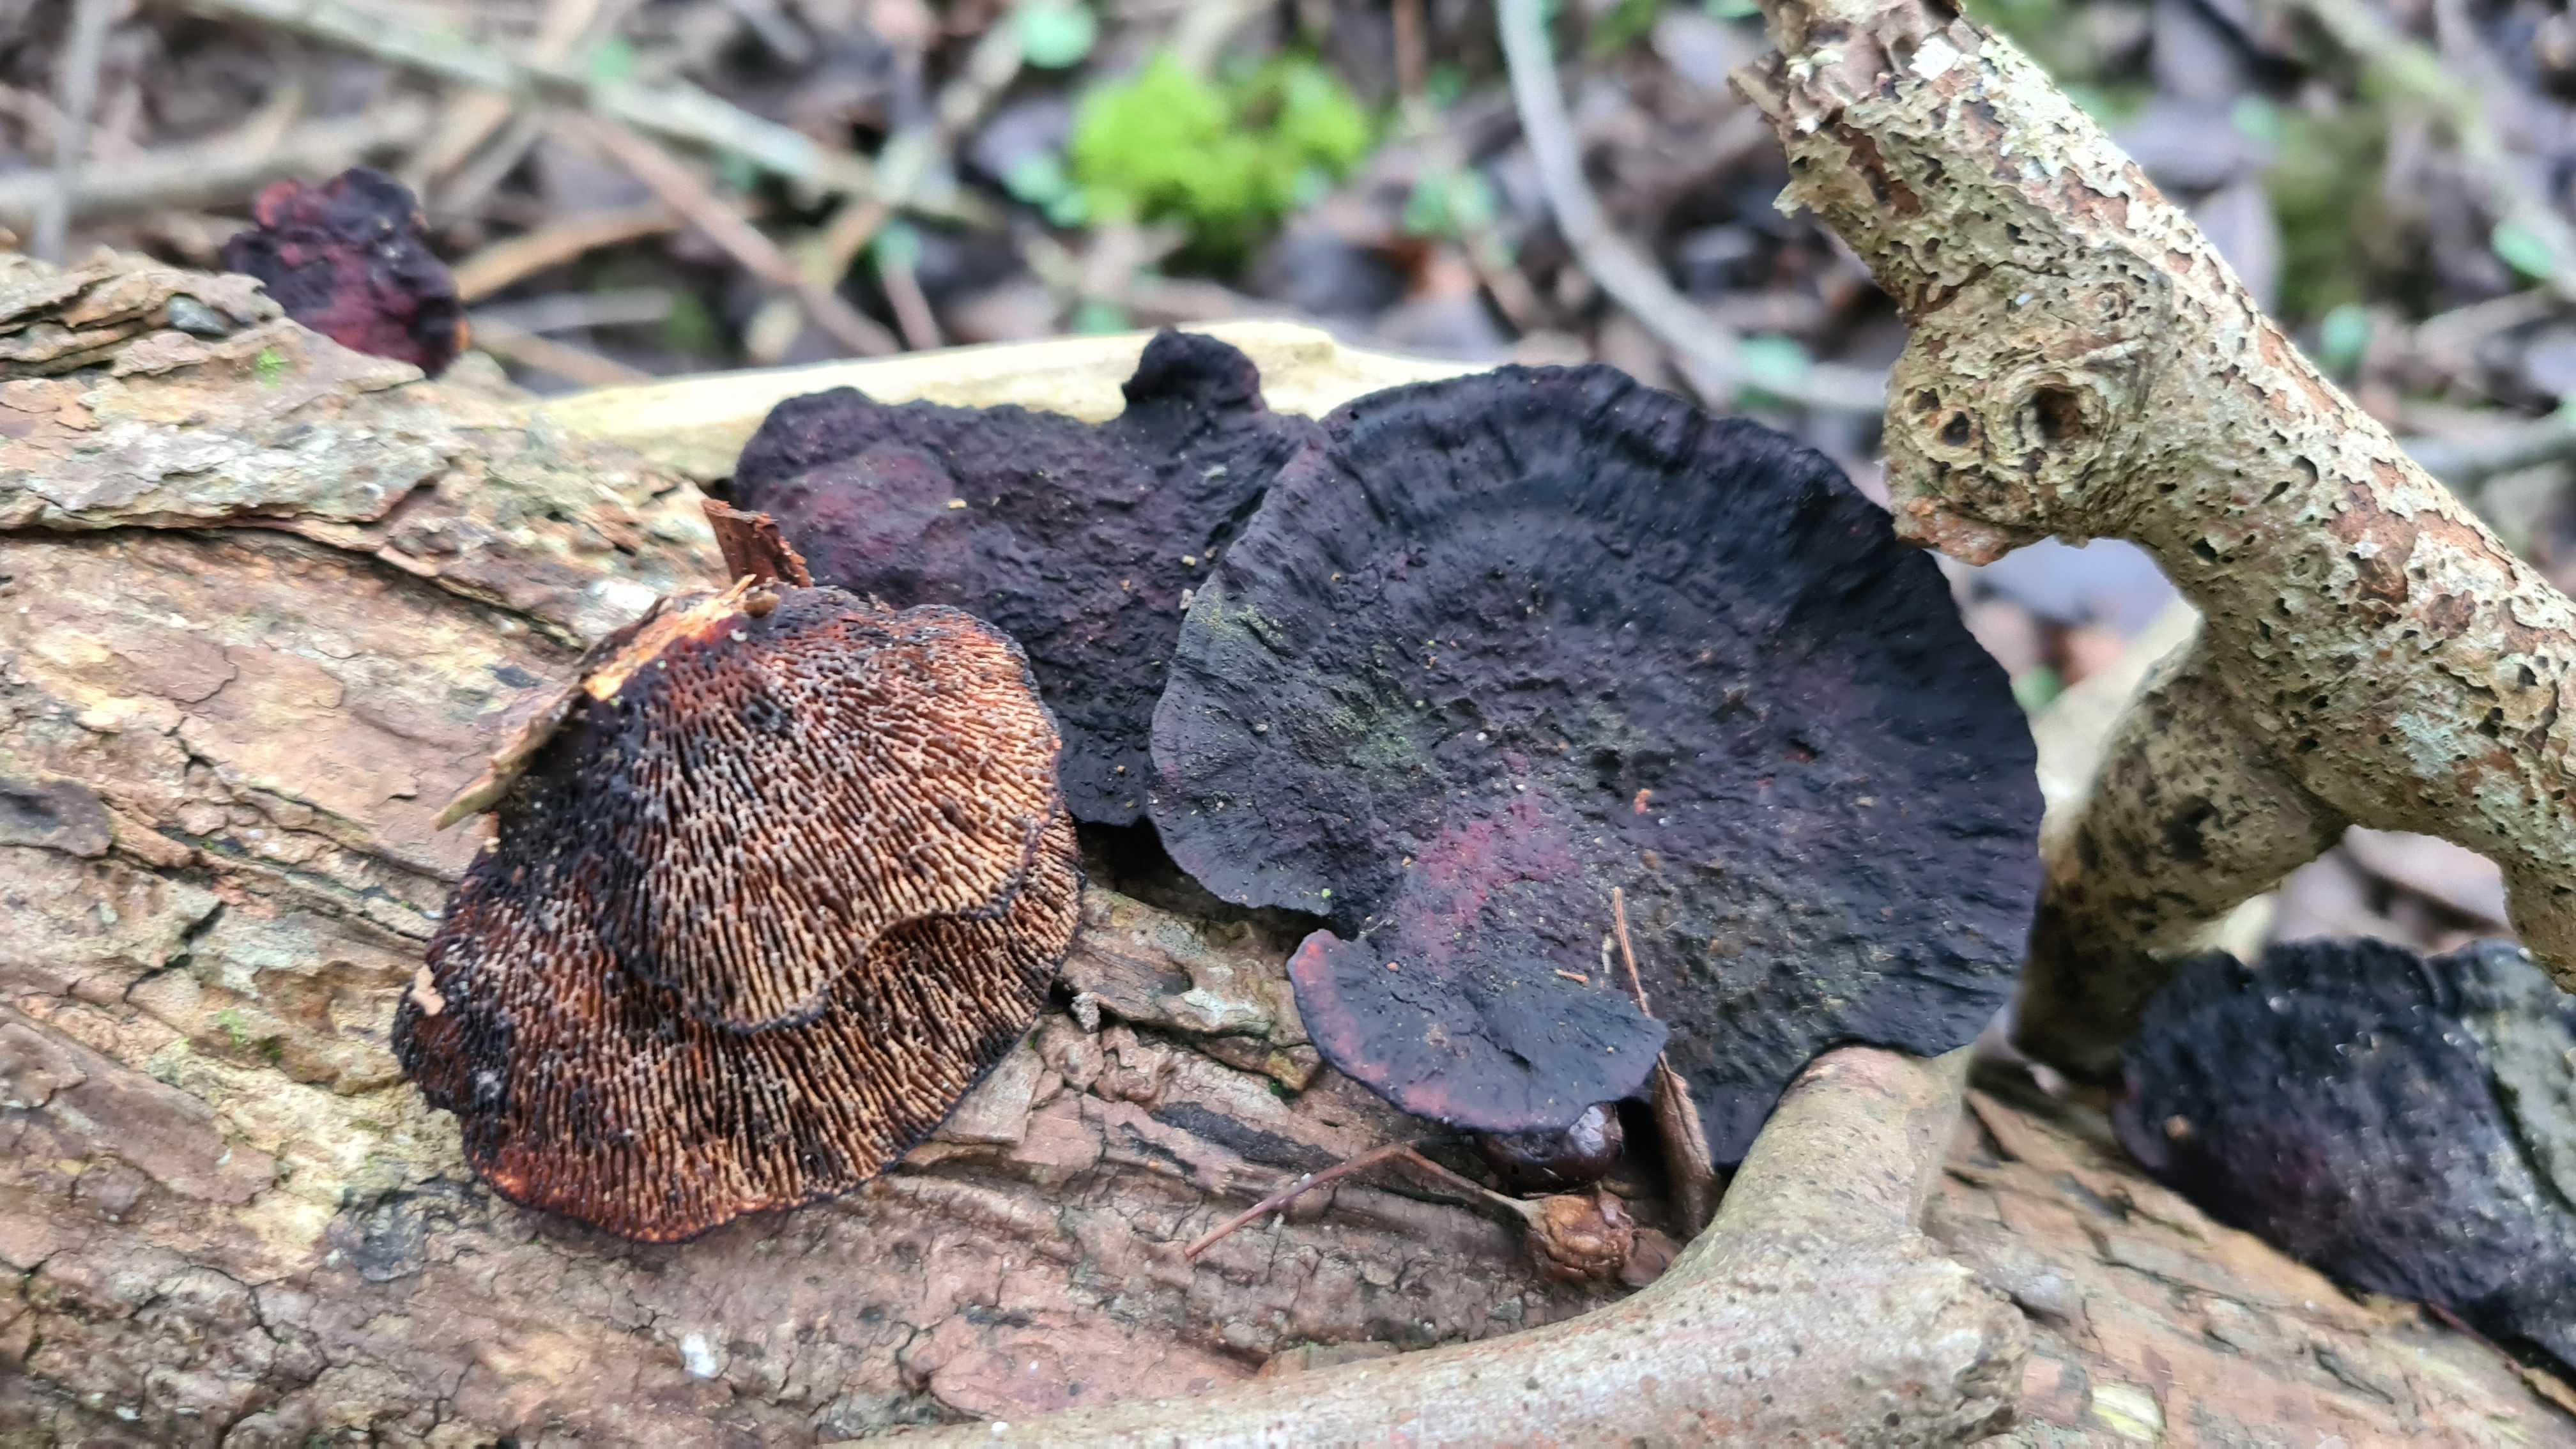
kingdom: Fungi
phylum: Basidiomycota
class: Agaricomycetes
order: Polyporales
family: Polyporaceae
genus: Daedaleopsis
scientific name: Daedaleopsis confragosa
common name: rødmende læderporesvamp
